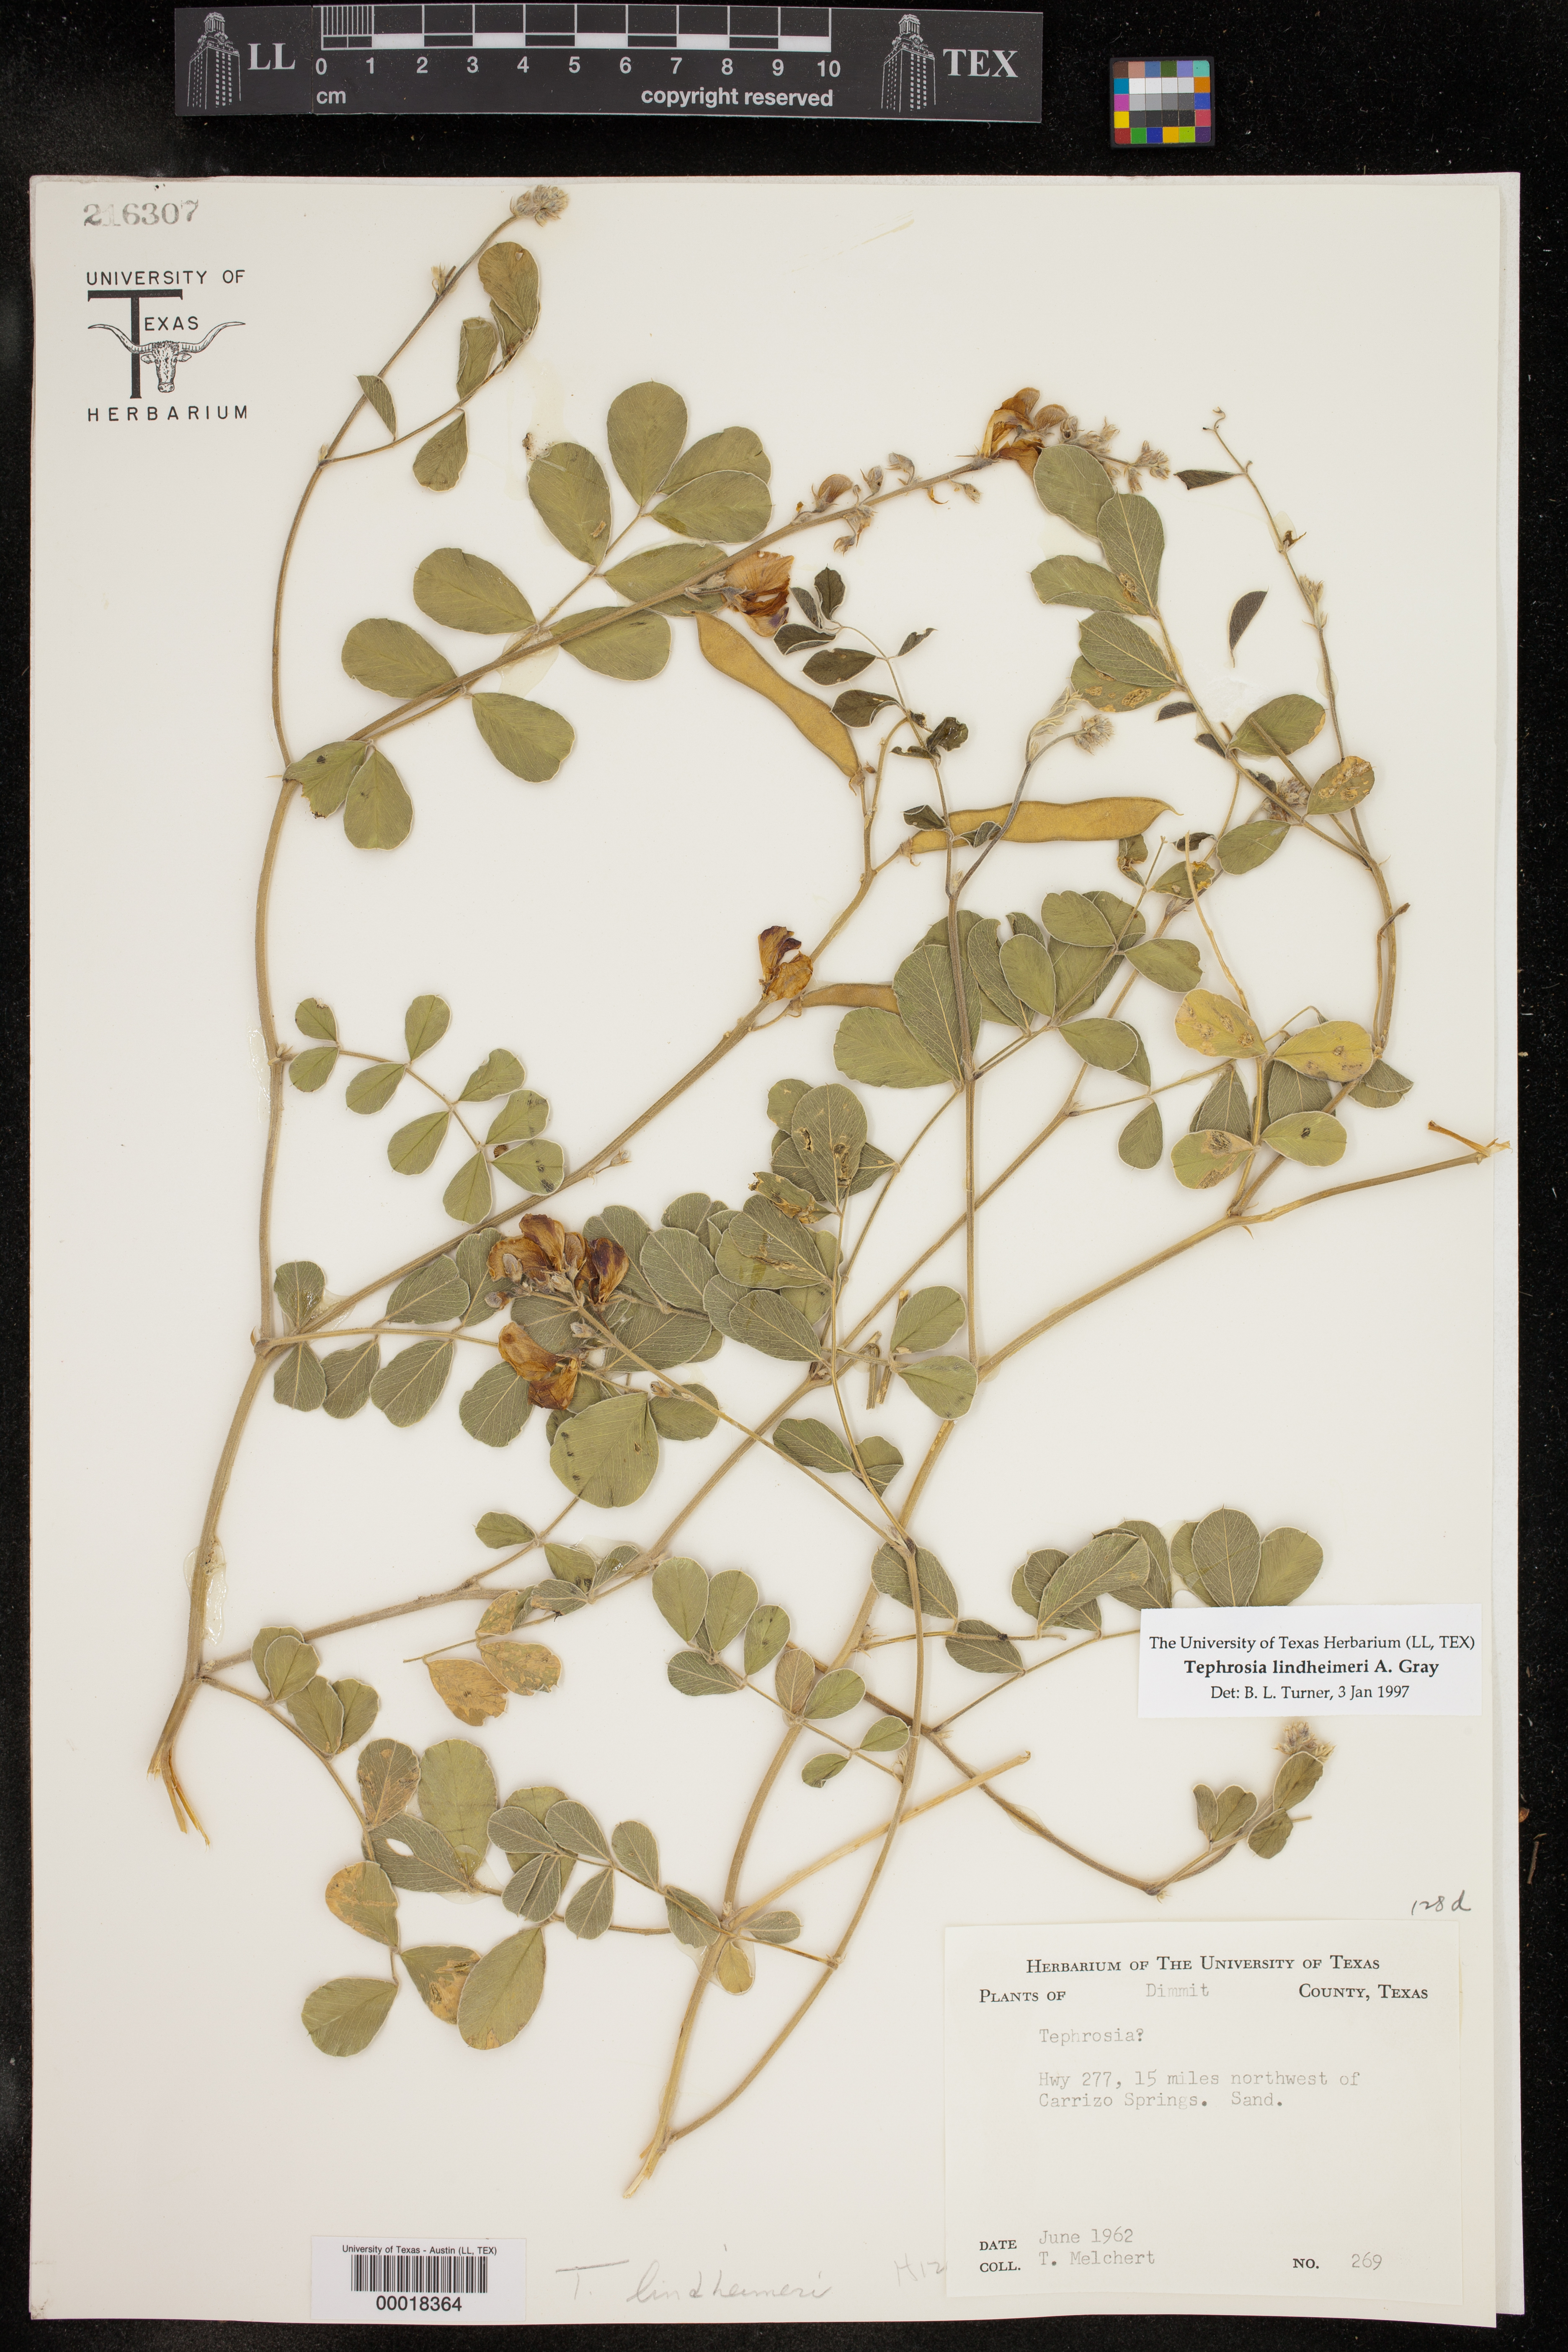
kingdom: Plantae
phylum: Tracheophyta
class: Magnoliopsida
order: Fabales
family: Fabaceae
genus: Tephrosia
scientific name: Tephrosia lindheimeri
